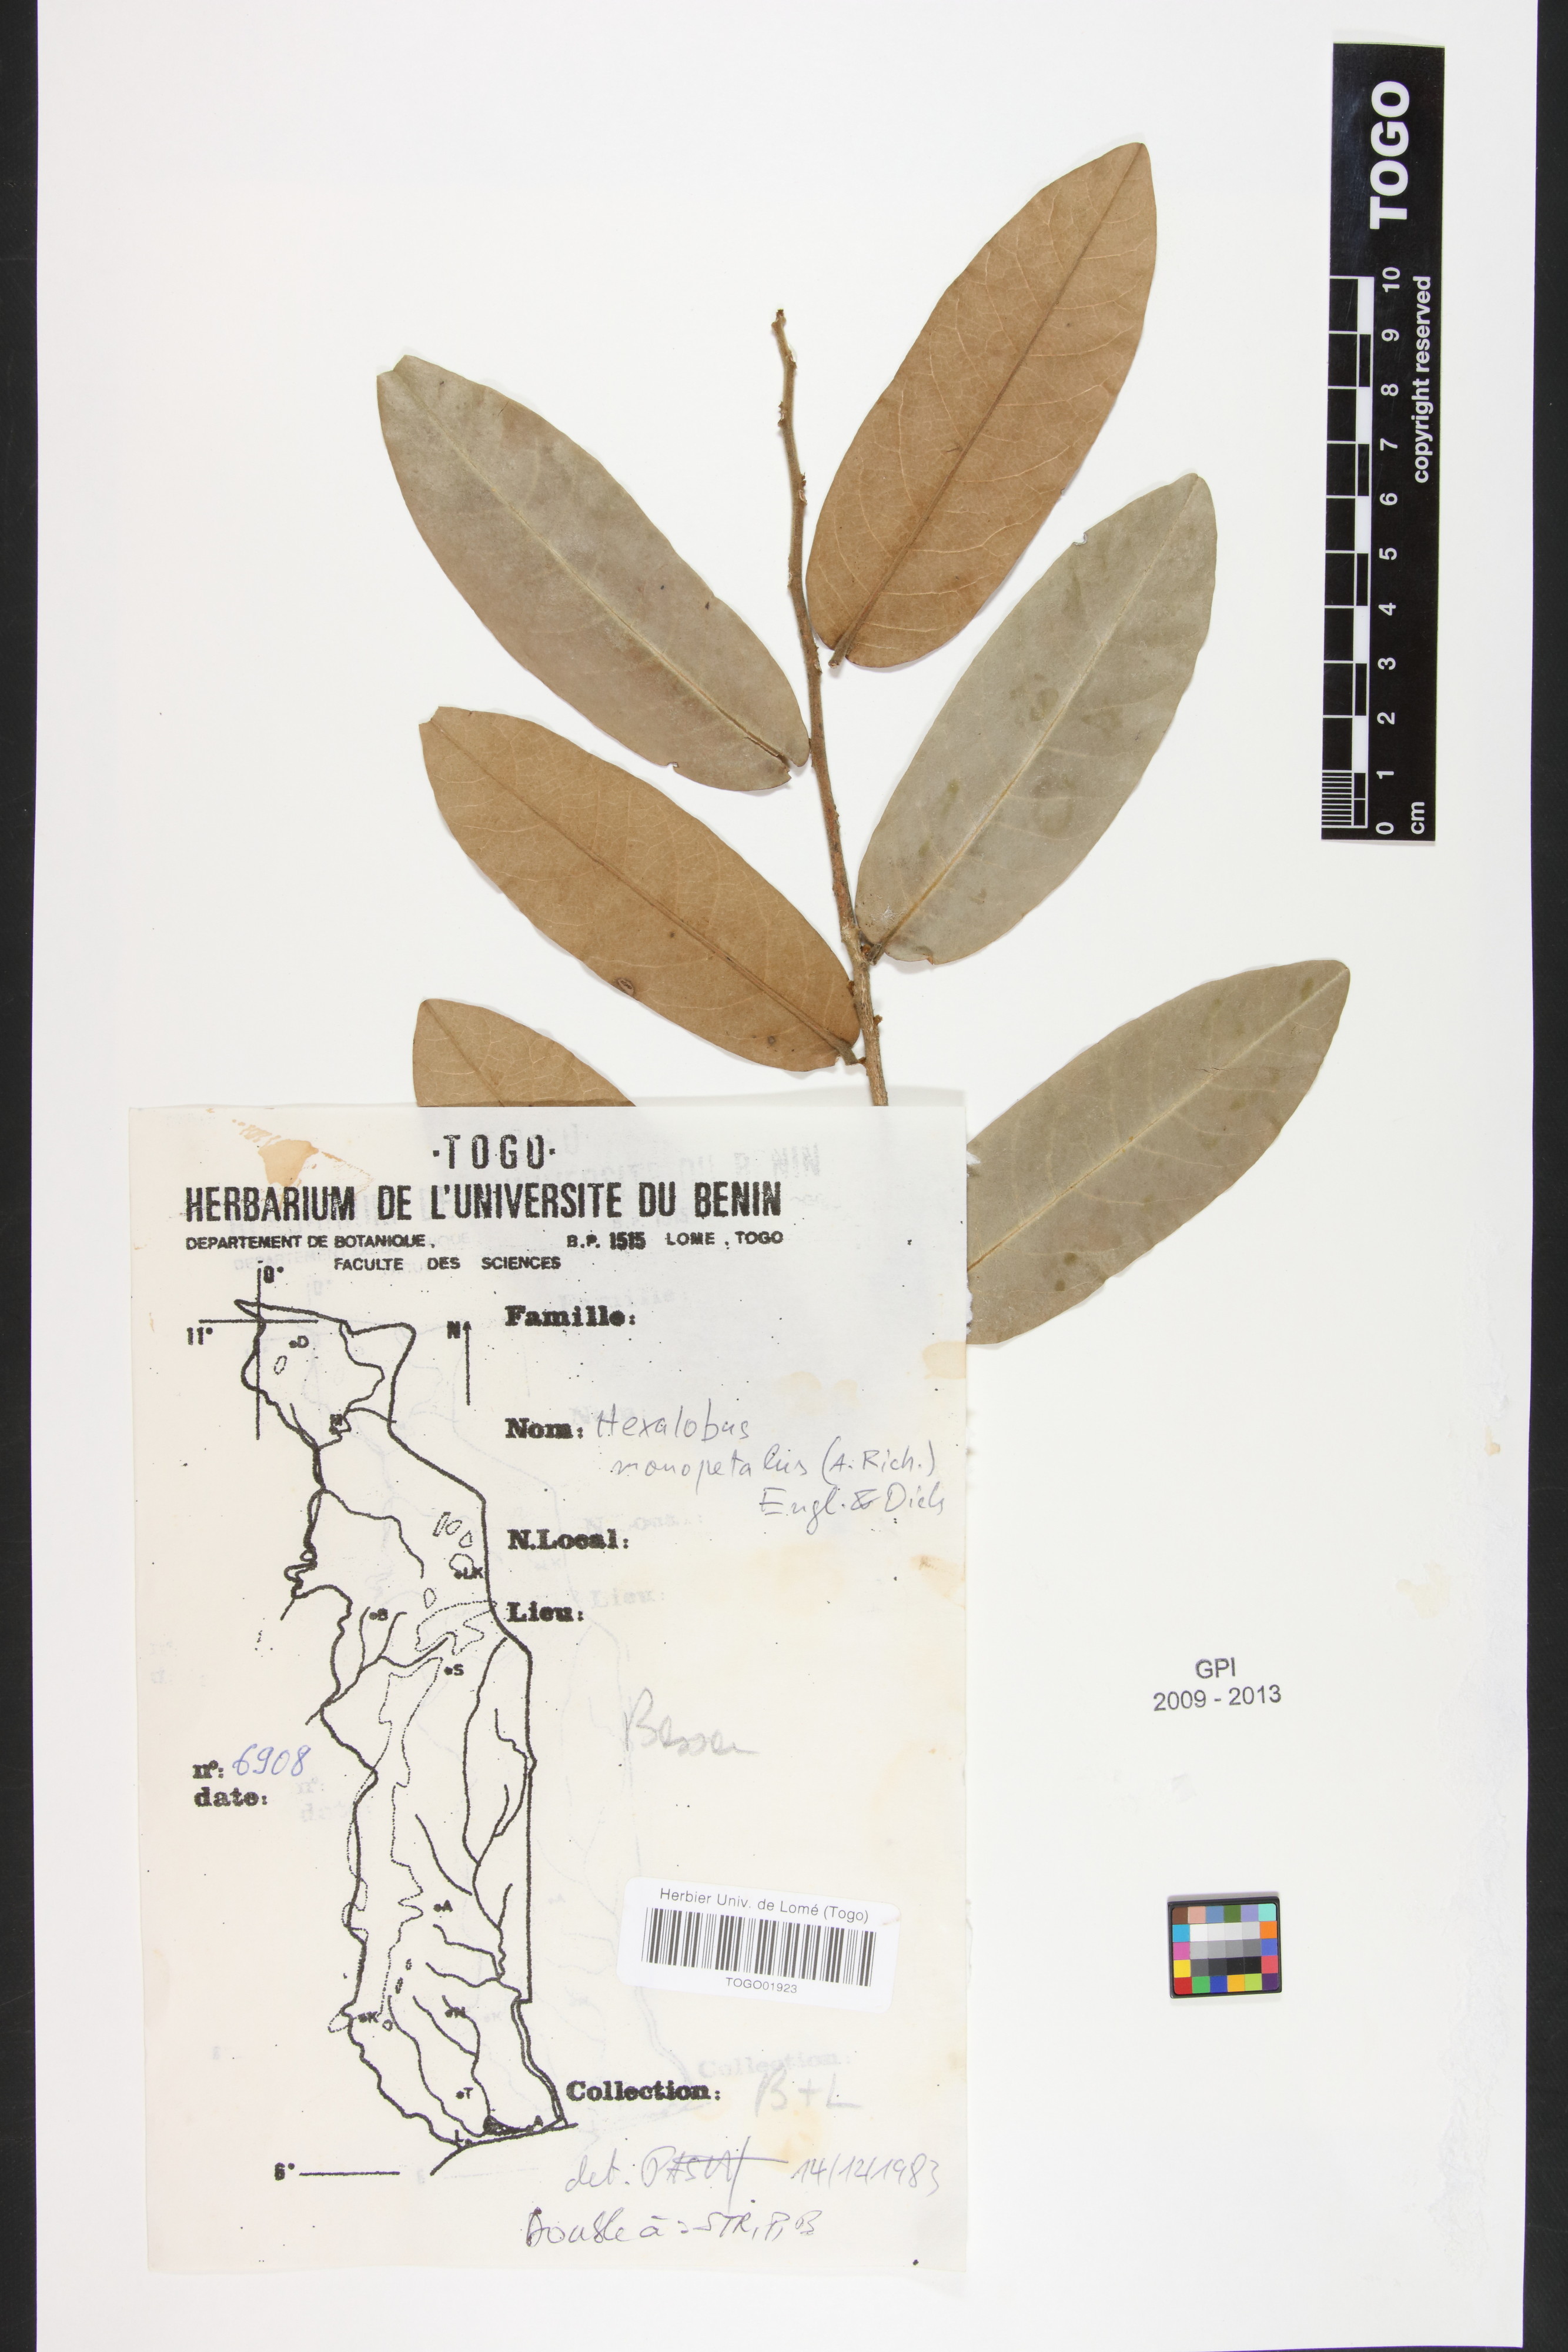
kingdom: Plantae
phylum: Tracheophyta
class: Magnoliopsida
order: Magnoliales
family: Annonaceae
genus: Hexalobus
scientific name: Hexalobus monopetalus
